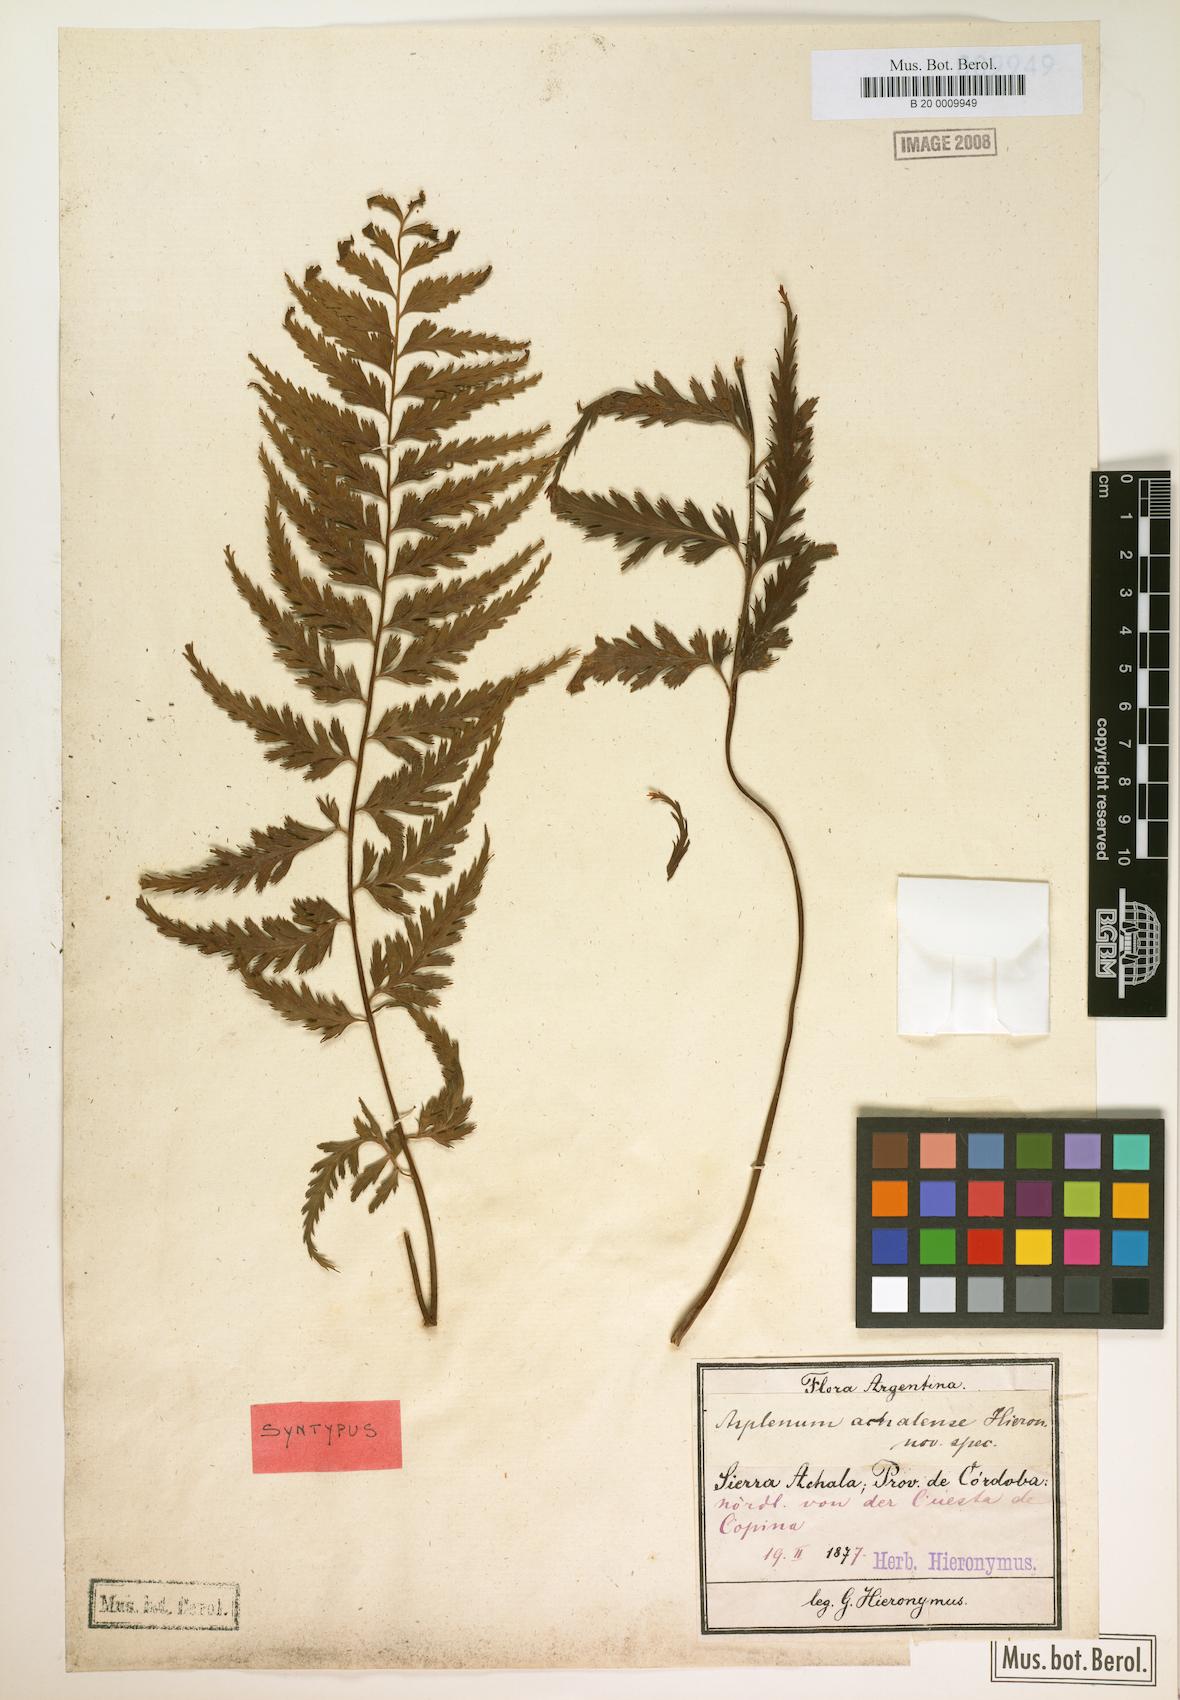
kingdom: Plantae
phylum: Tracheophyta
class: Polypodiopsida
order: Polypodiales
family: Aspleniaceae
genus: Asplenium
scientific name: Asplenium achalense
